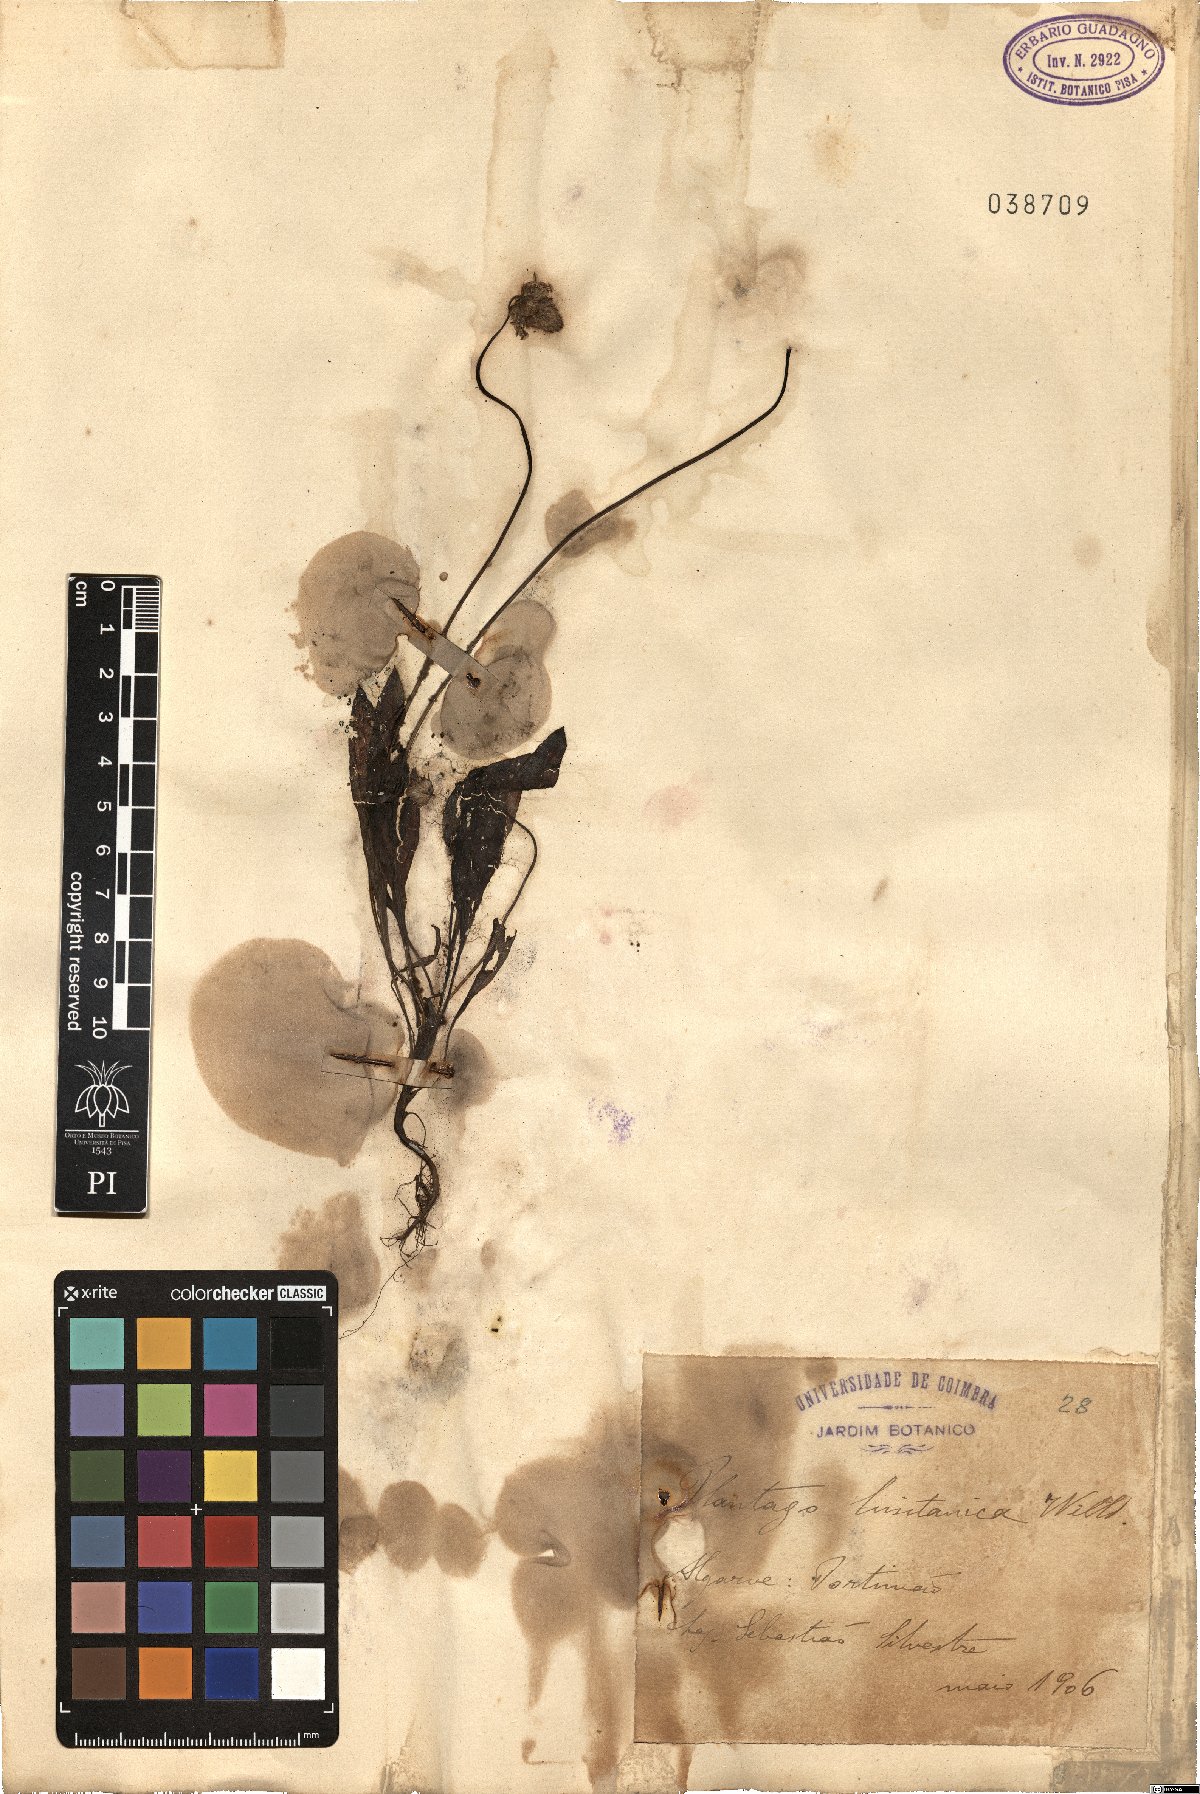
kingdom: Plantae
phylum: Tracheophyta
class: Magnoliopsida
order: Lamiales
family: Plantaginaceae
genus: Plantago
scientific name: Plantago lagopus
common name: Hare-foot plantain
